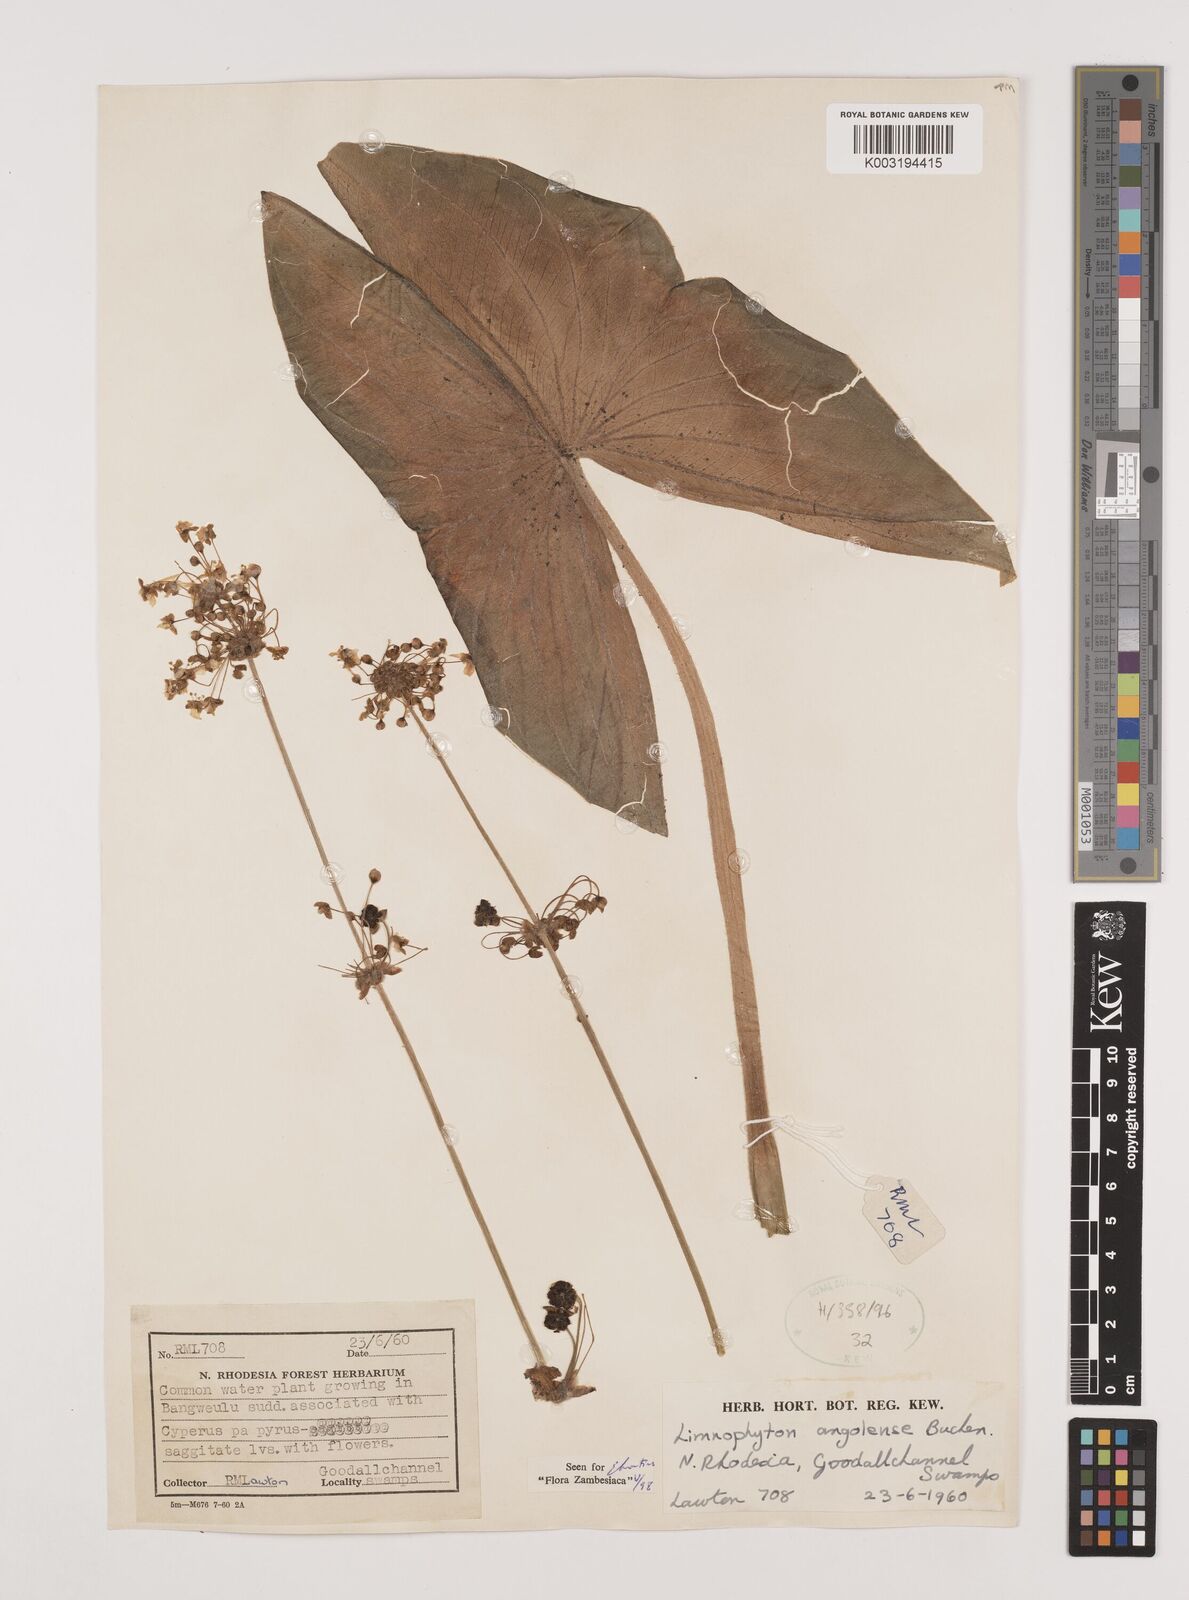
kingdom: Plantae
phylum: Tracheophyta
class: Liliopsida
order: Alismatales
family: Alismataceae
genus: Limnophyton
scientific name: Limnophyton angolense
